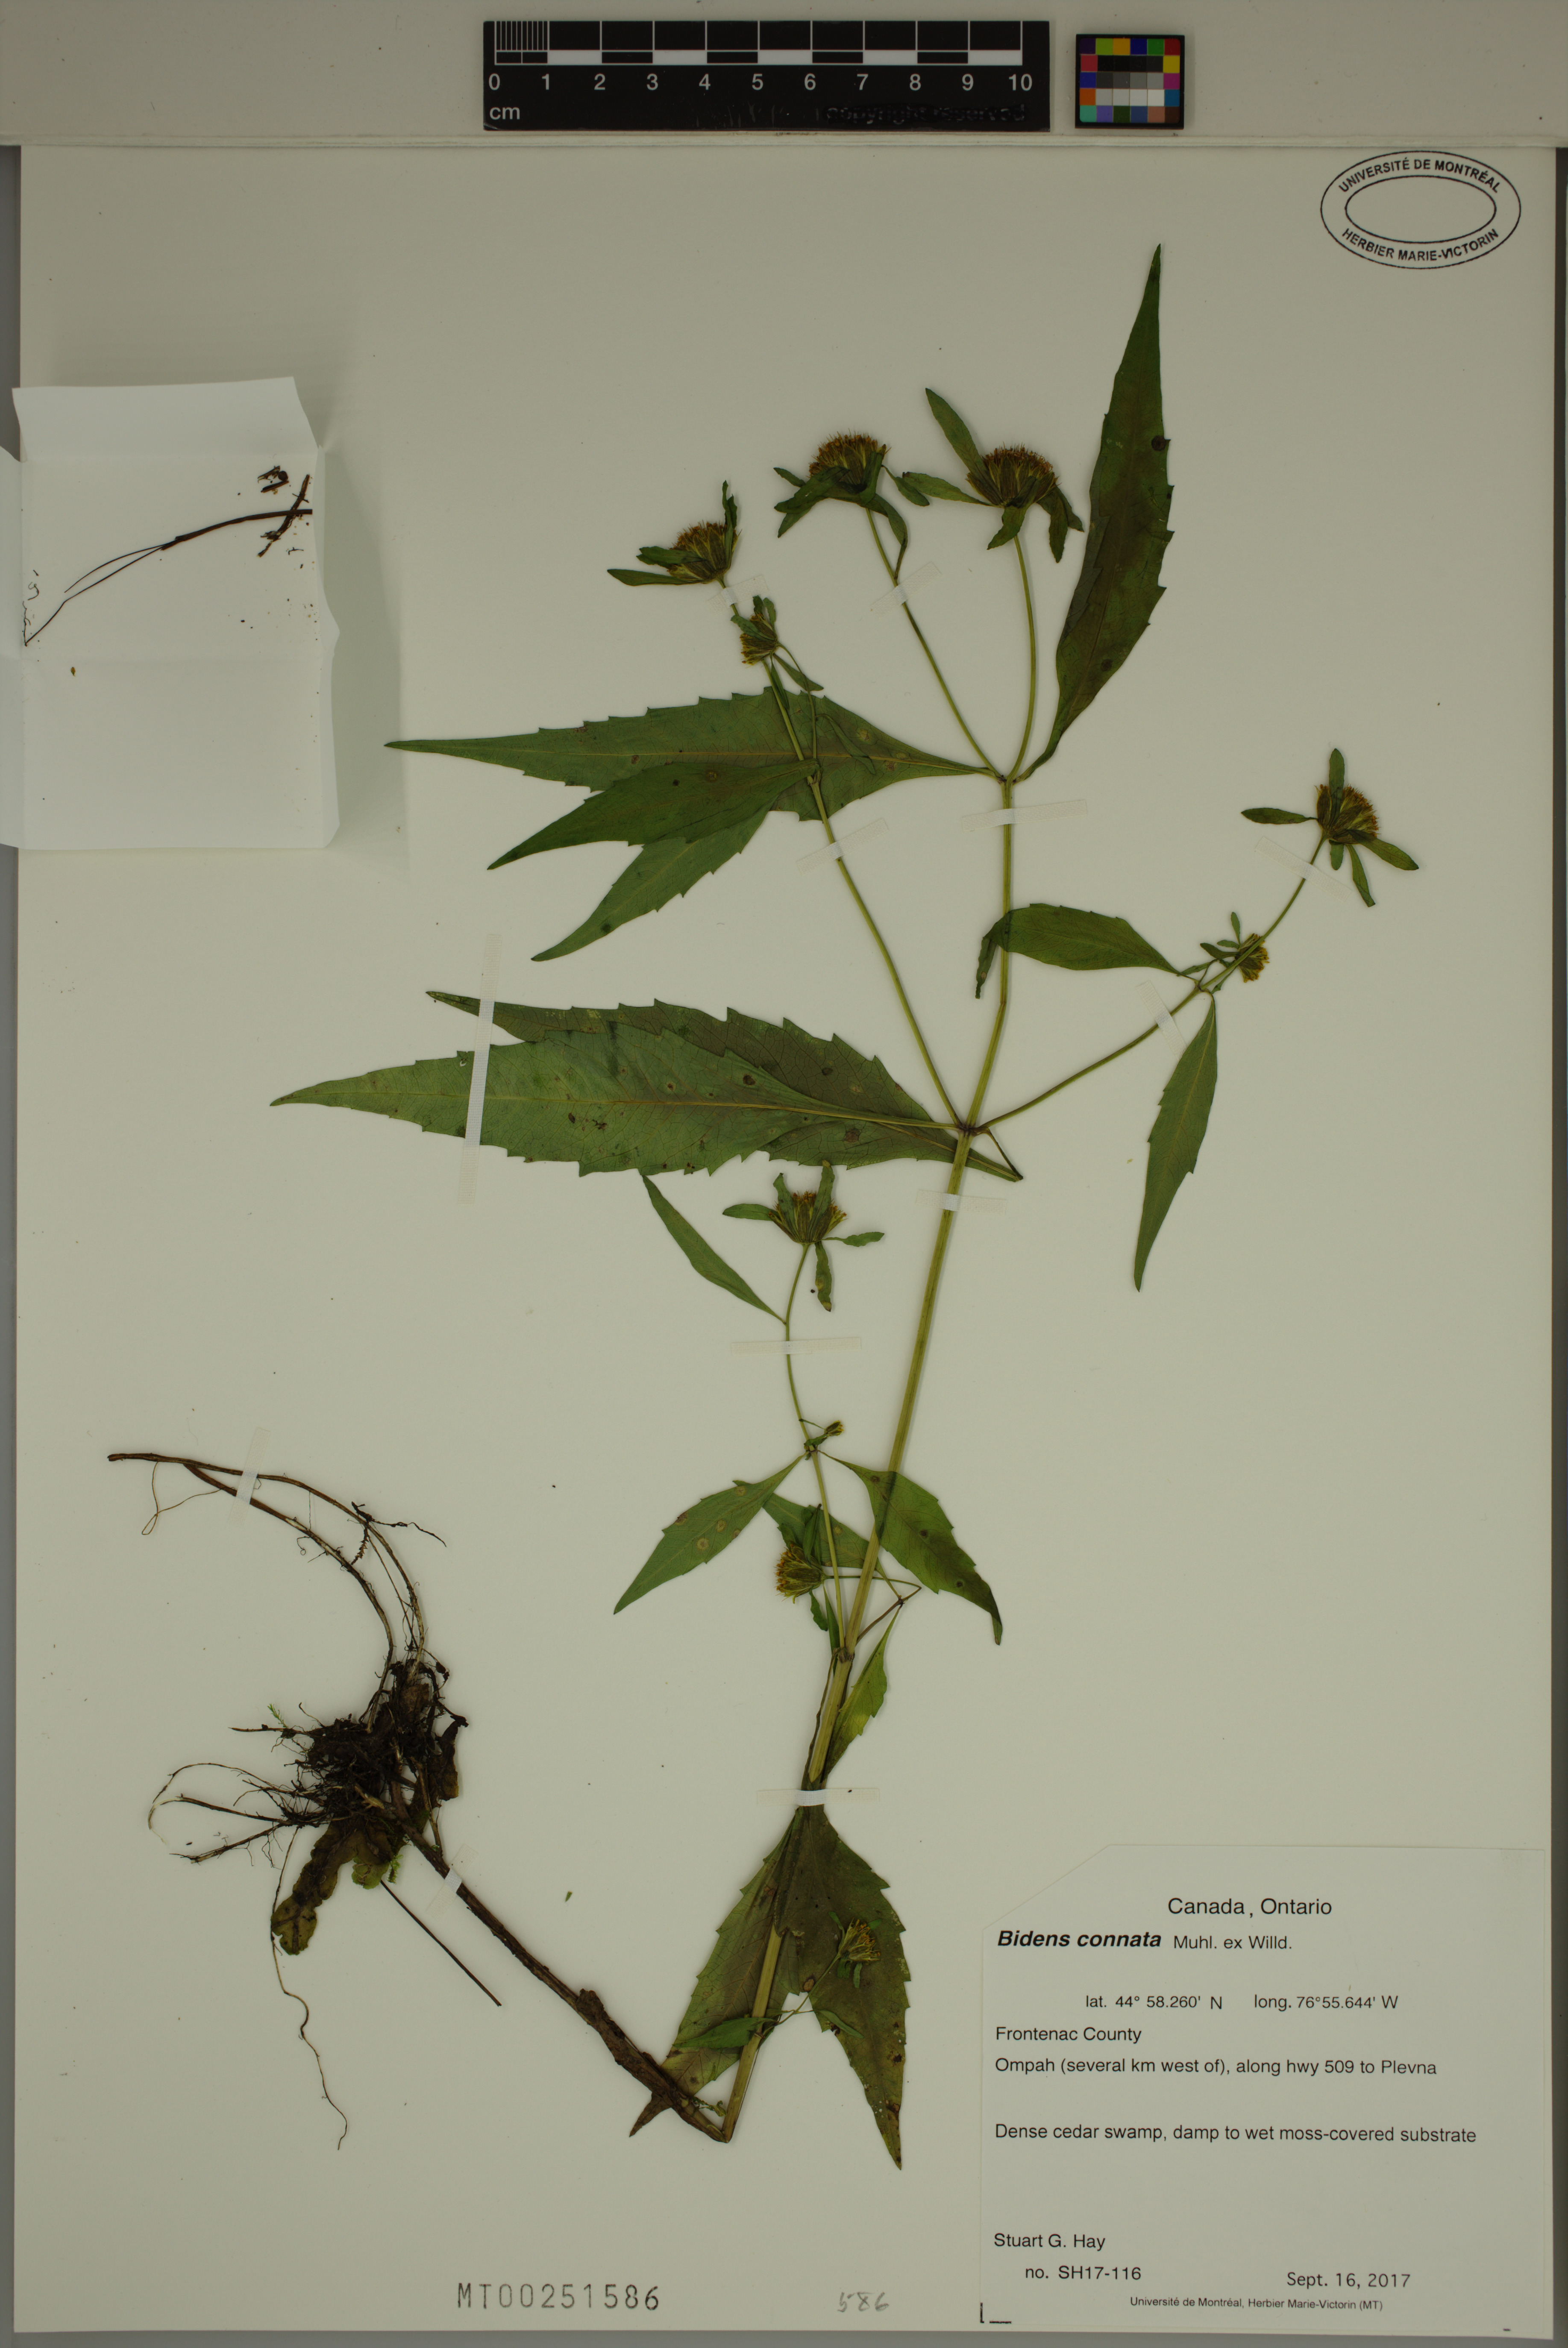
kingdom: Plantae
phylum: Tracheophyta
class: Magnoliopsida
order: Asterales
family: Asteraceae
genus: Bidens
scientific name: Bidens connata
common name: London bur-marigold
